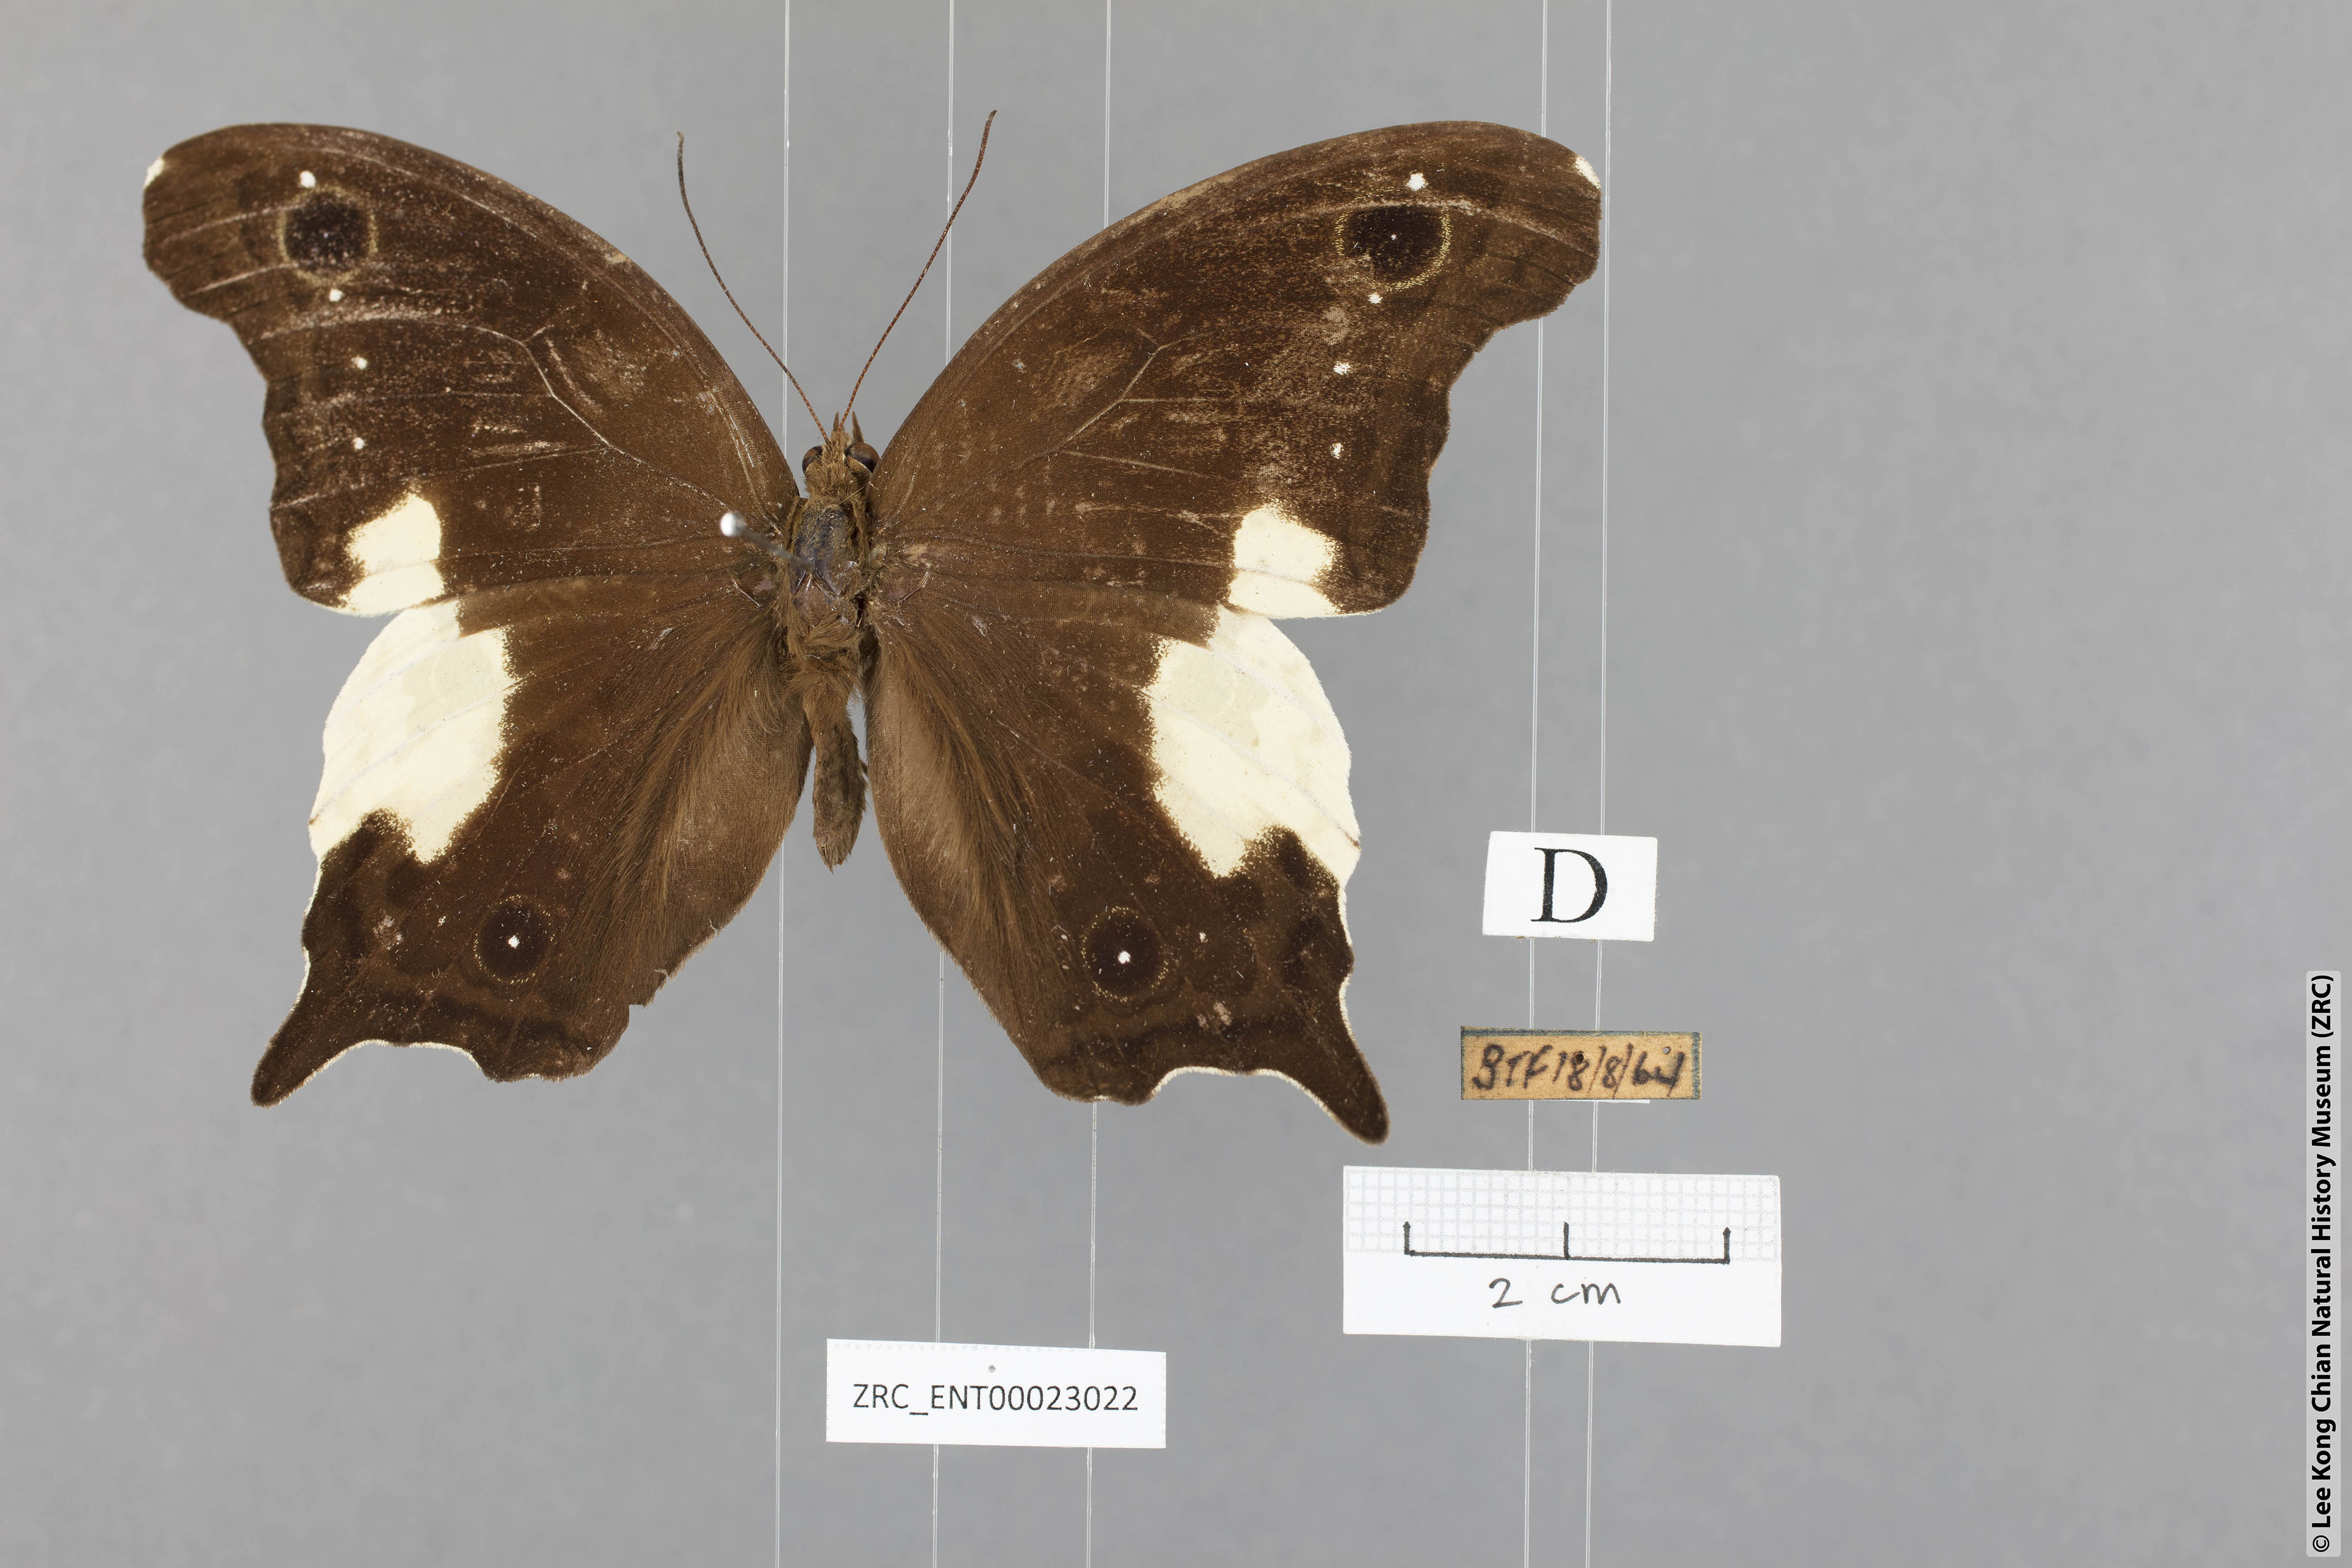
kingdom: Animalia
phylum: Arthropoda
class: Insecta
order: Lepidoptera
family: Nymphalidae
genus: Neorina
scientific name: Neorina lowii
